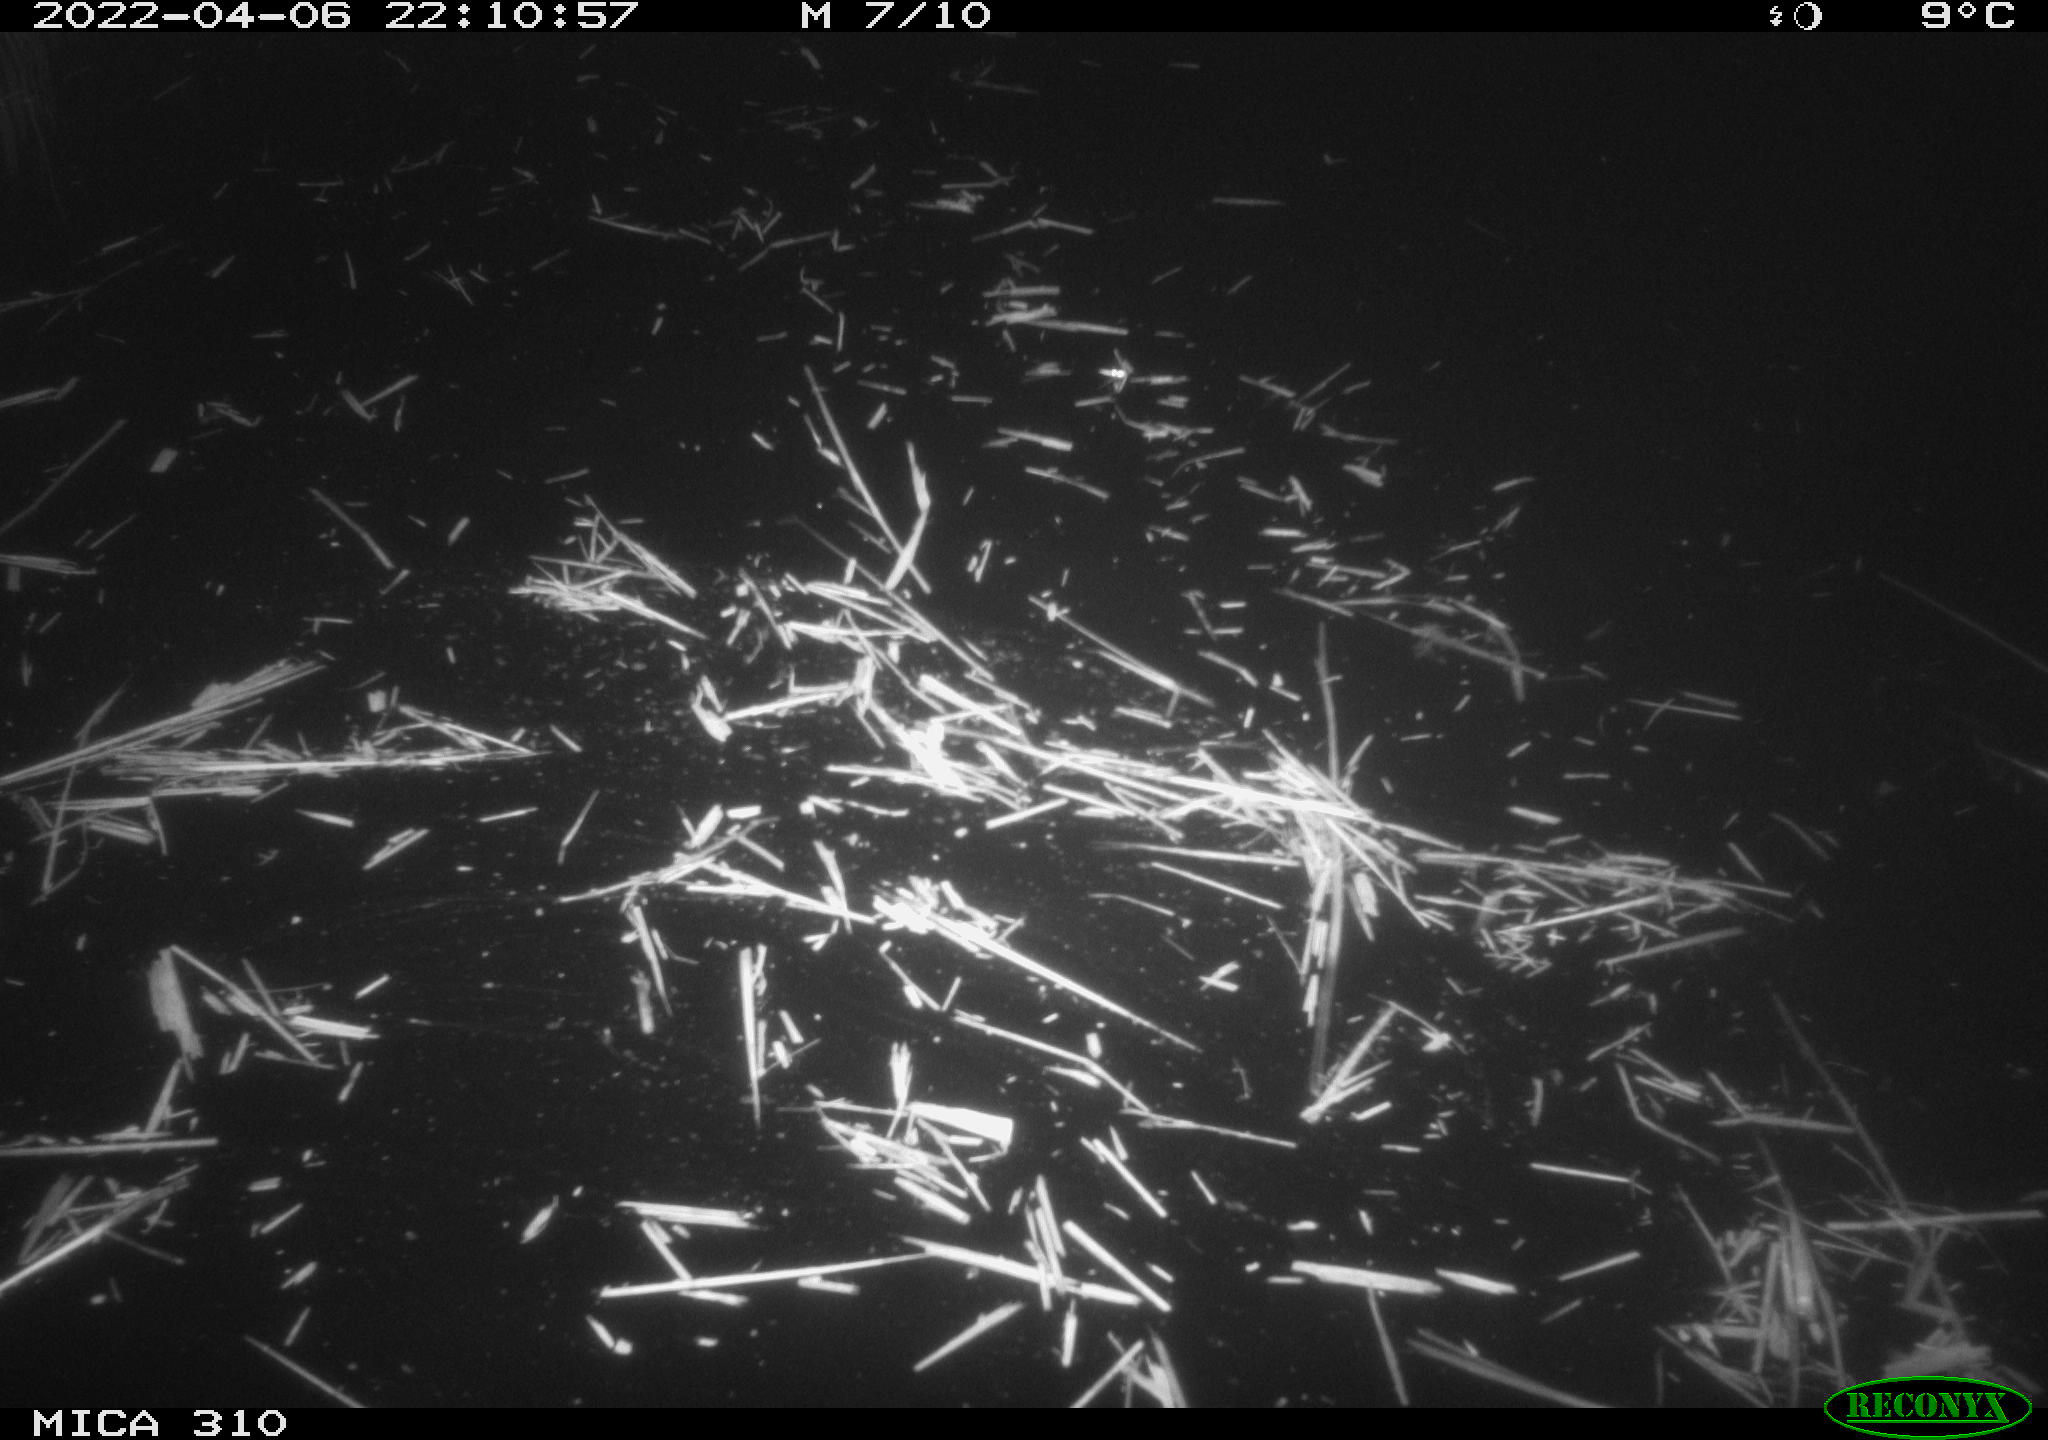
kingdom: Animalia
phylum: Chordata
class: Mammalia
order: Rodentia
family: Cricetidae
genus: Ondatra
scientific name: Ondatra zibethicus
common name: Muskrat
